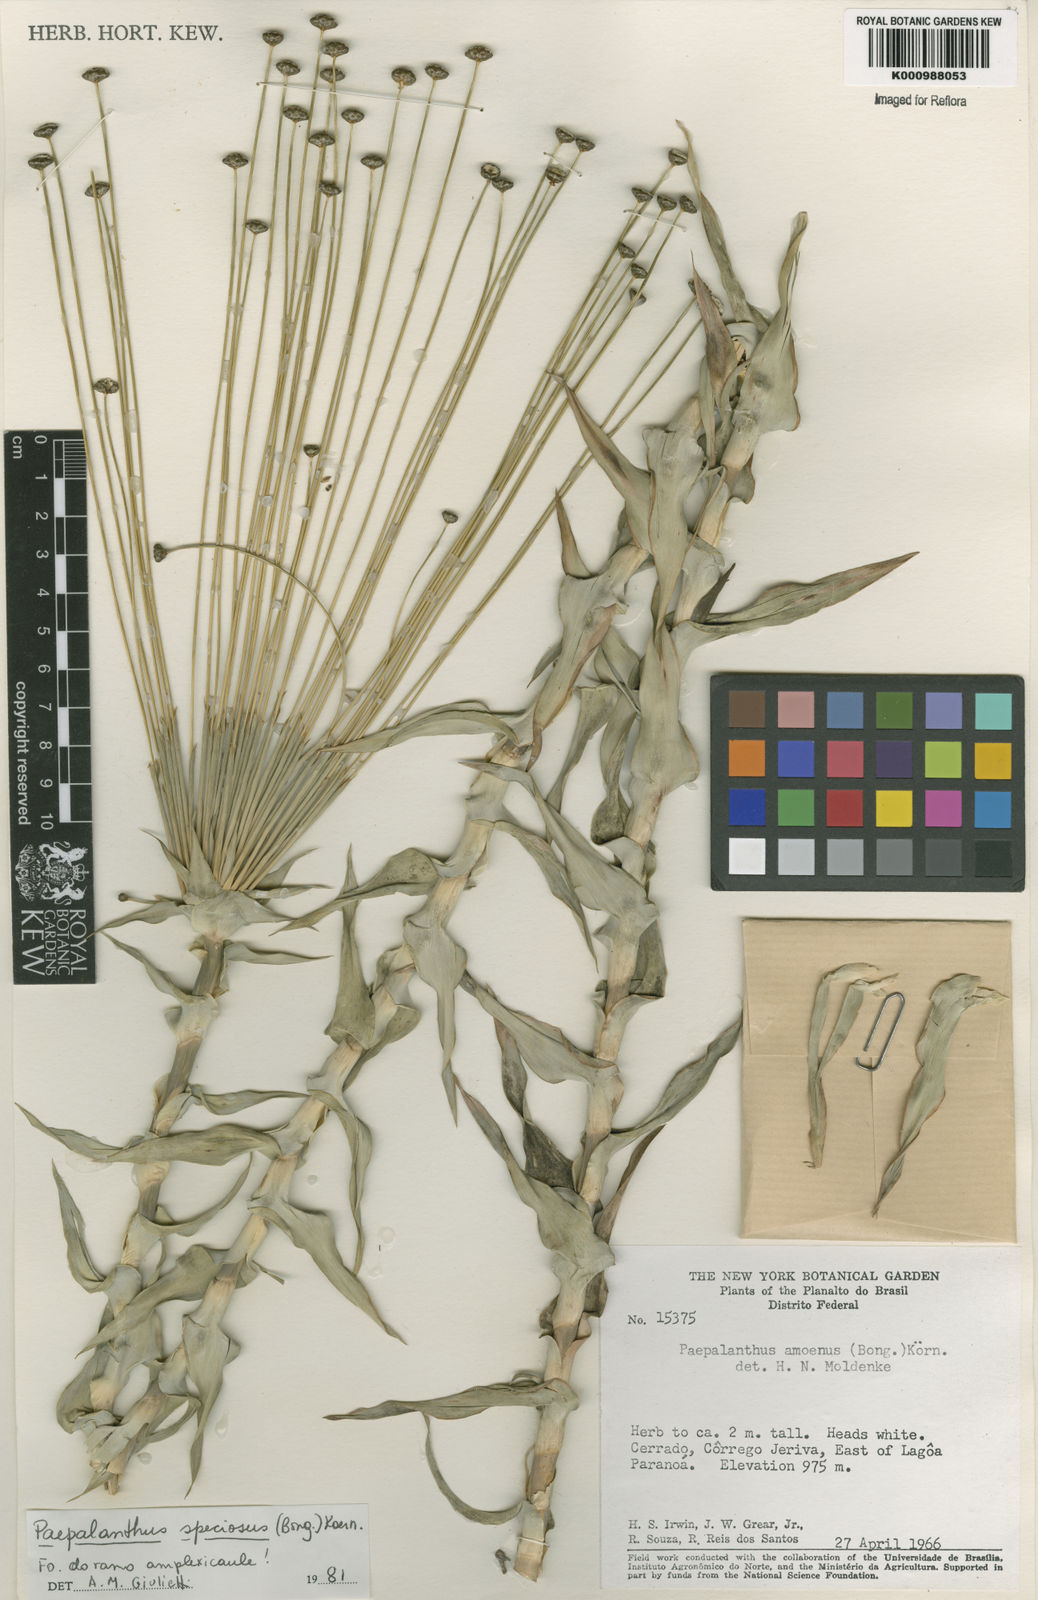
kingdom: Plantae
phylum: Tracheophyta
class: Liliopsida
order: Poales
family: Eriocaulaceae
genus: Paepalanthus
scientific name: Paepalanthus
